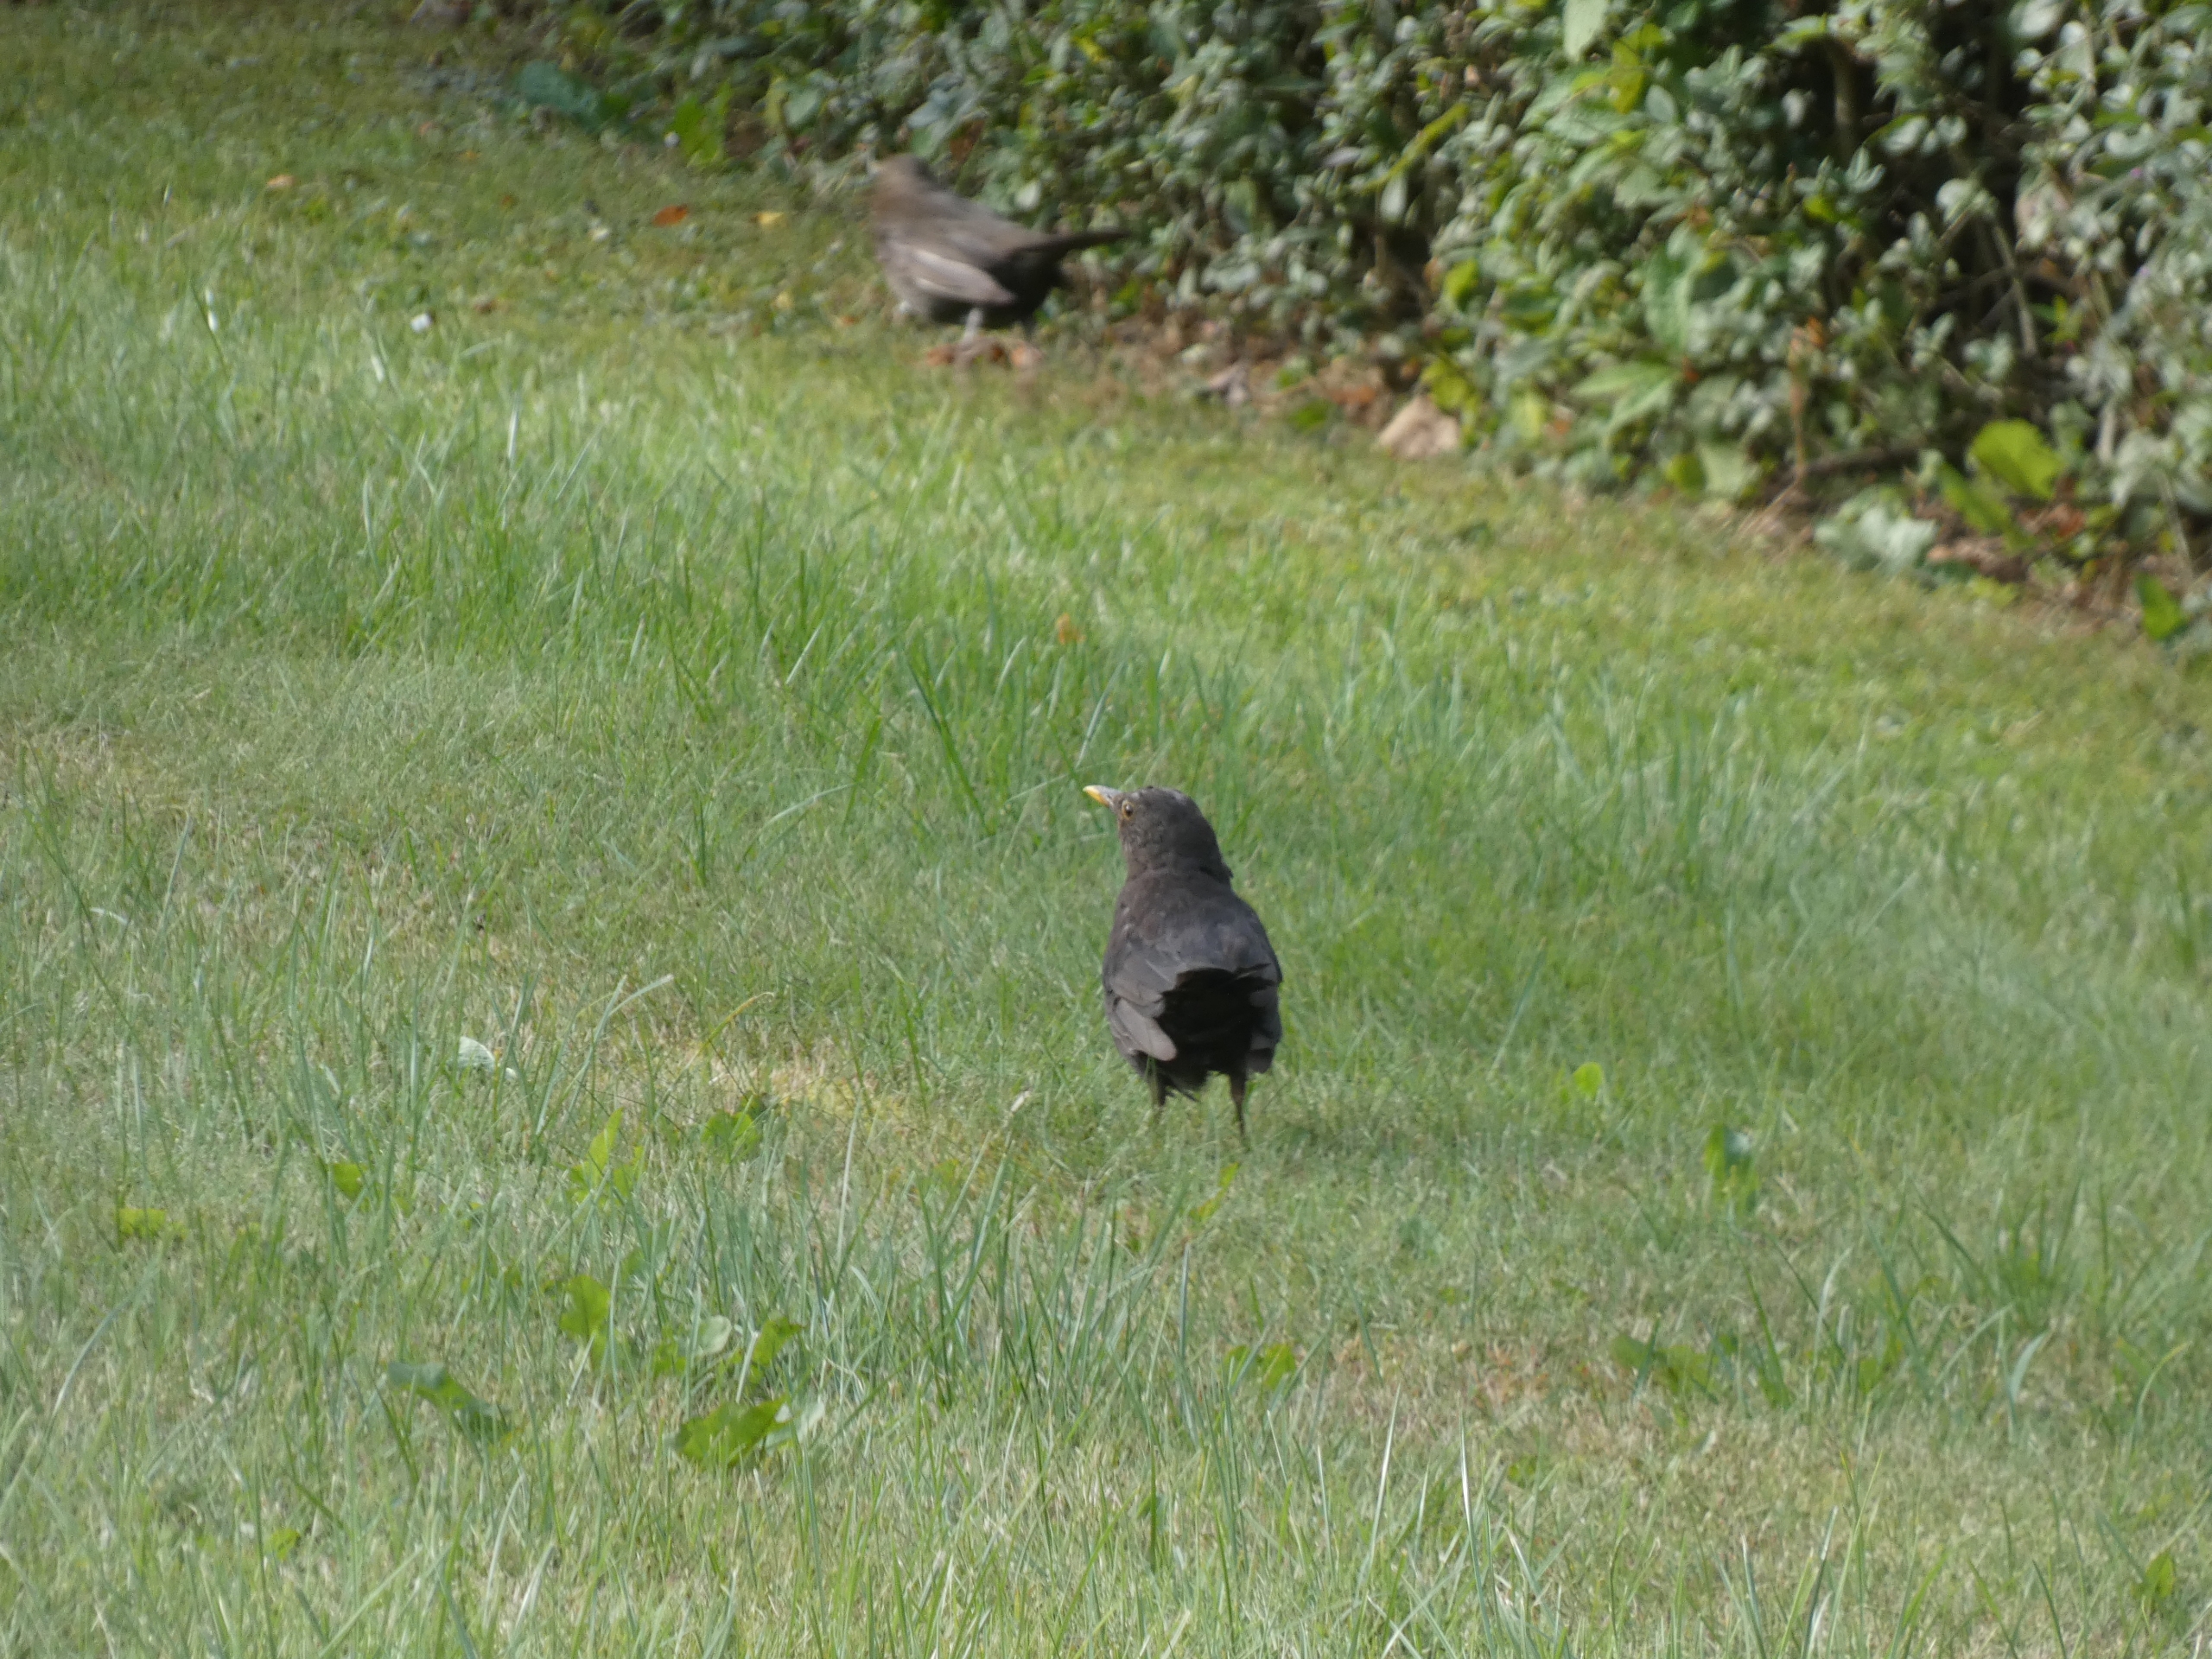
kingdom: Animalia
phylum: Chordata
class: Aves
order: Passeriformes
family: Turdidae
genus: Turdus
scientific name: Turdus merula
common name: Solsort
